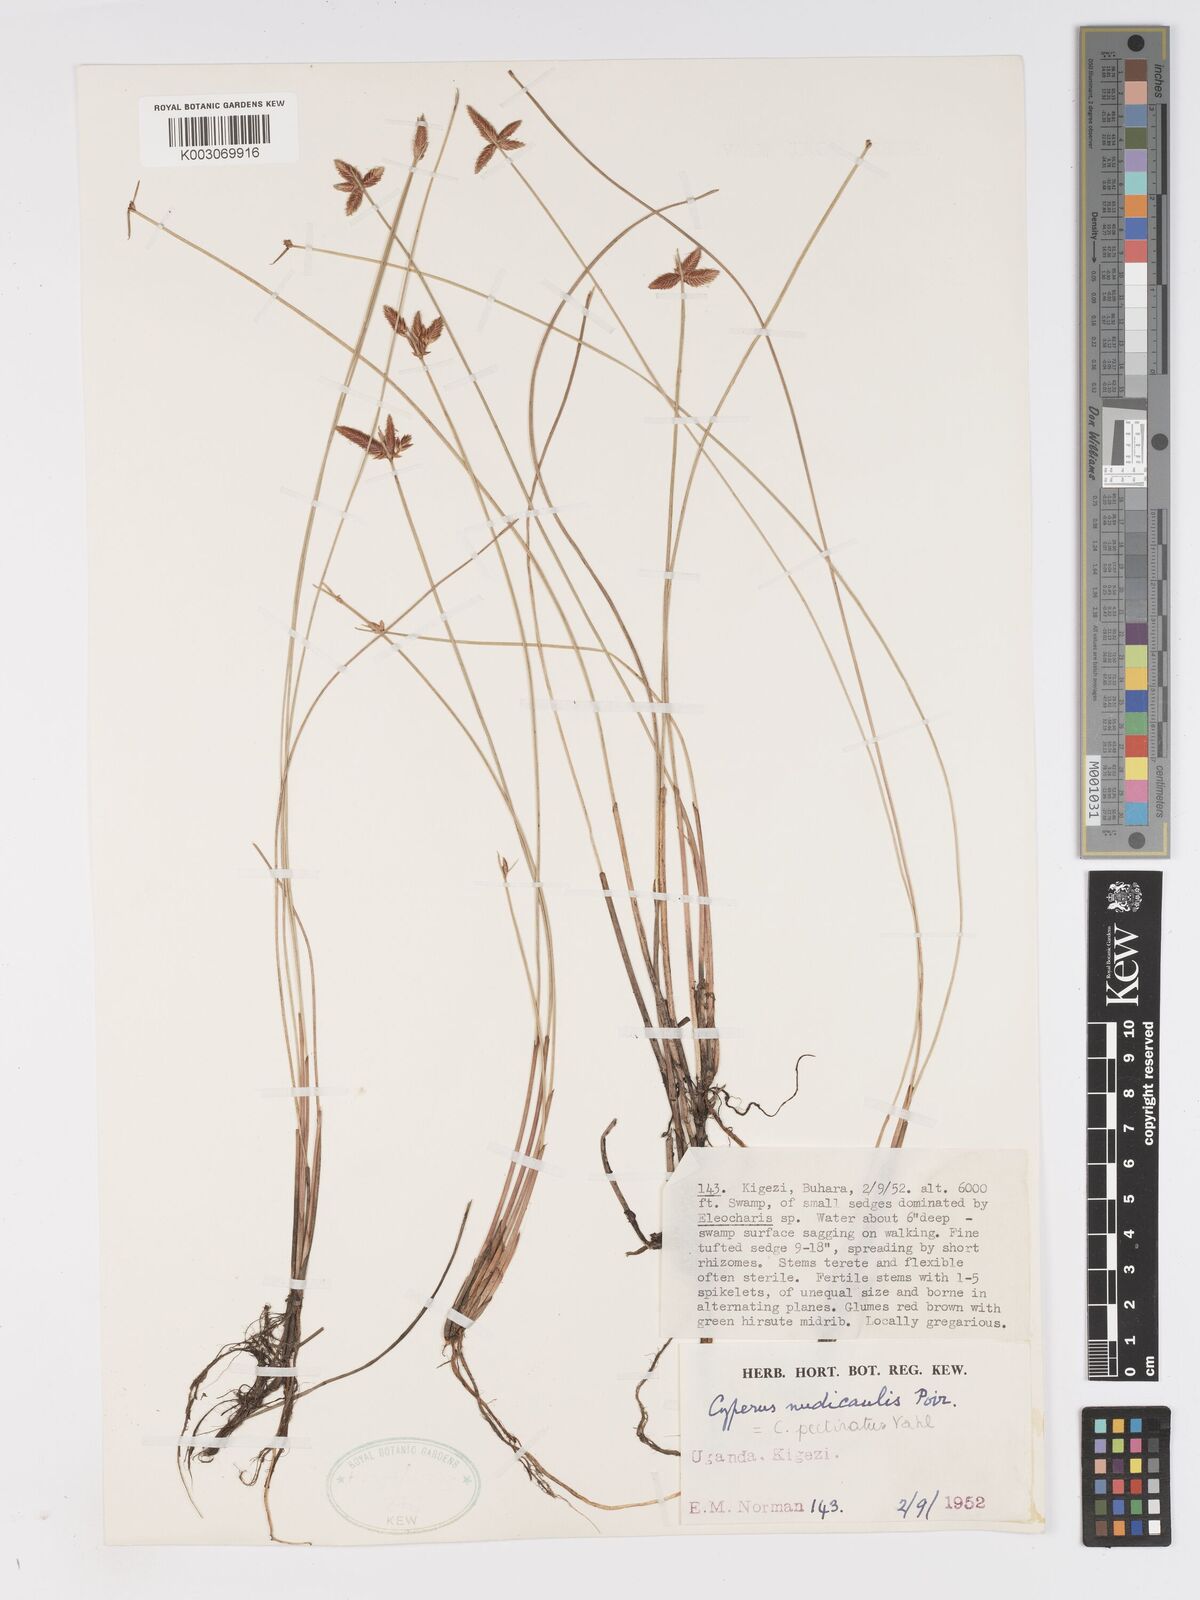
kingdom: Plantae
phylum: Tracheophyta
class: Liliopsida
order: Poales
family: Cyperaceae
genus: Cyperus
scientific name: Cyperus pectinatus
